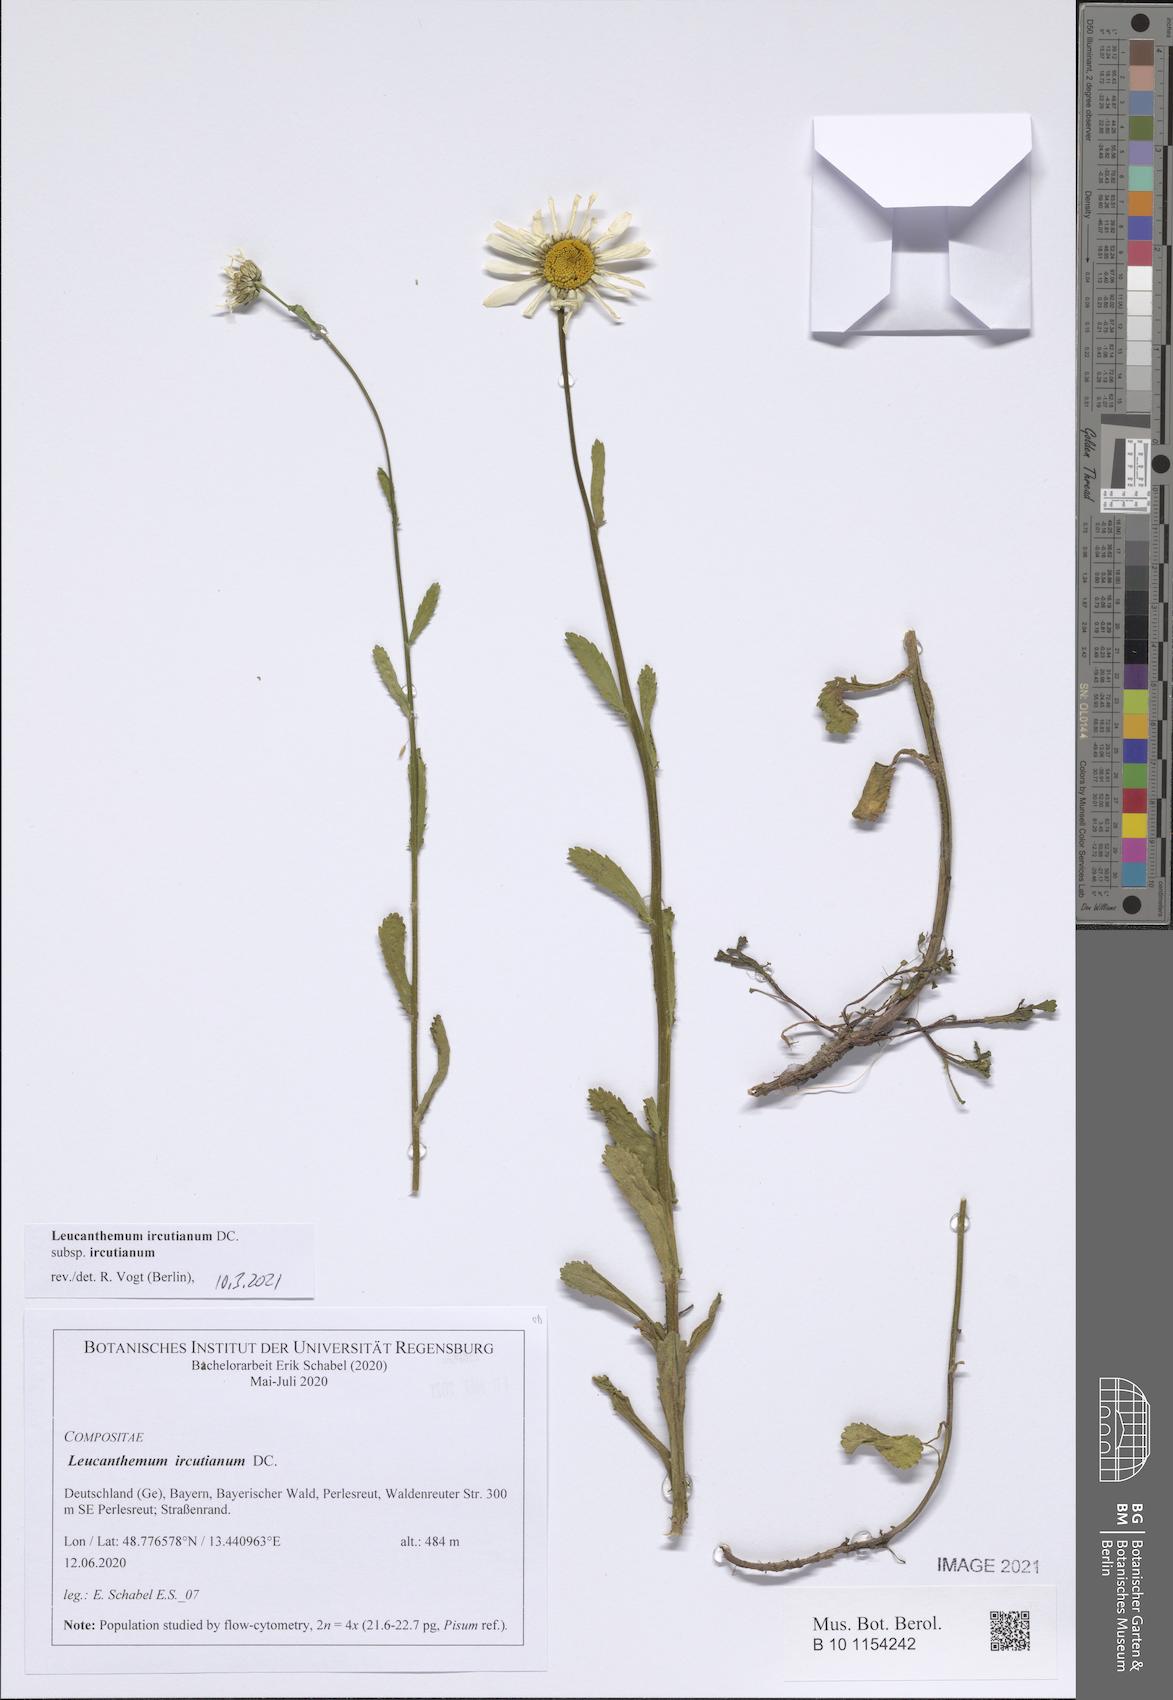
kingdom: Plantae
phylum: Tracheophyta
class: Magnoliopsida
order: Asterales
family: Asteraceae
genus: Leucanthemum
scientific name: Leucanthemum ircutianum
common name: Daisy
